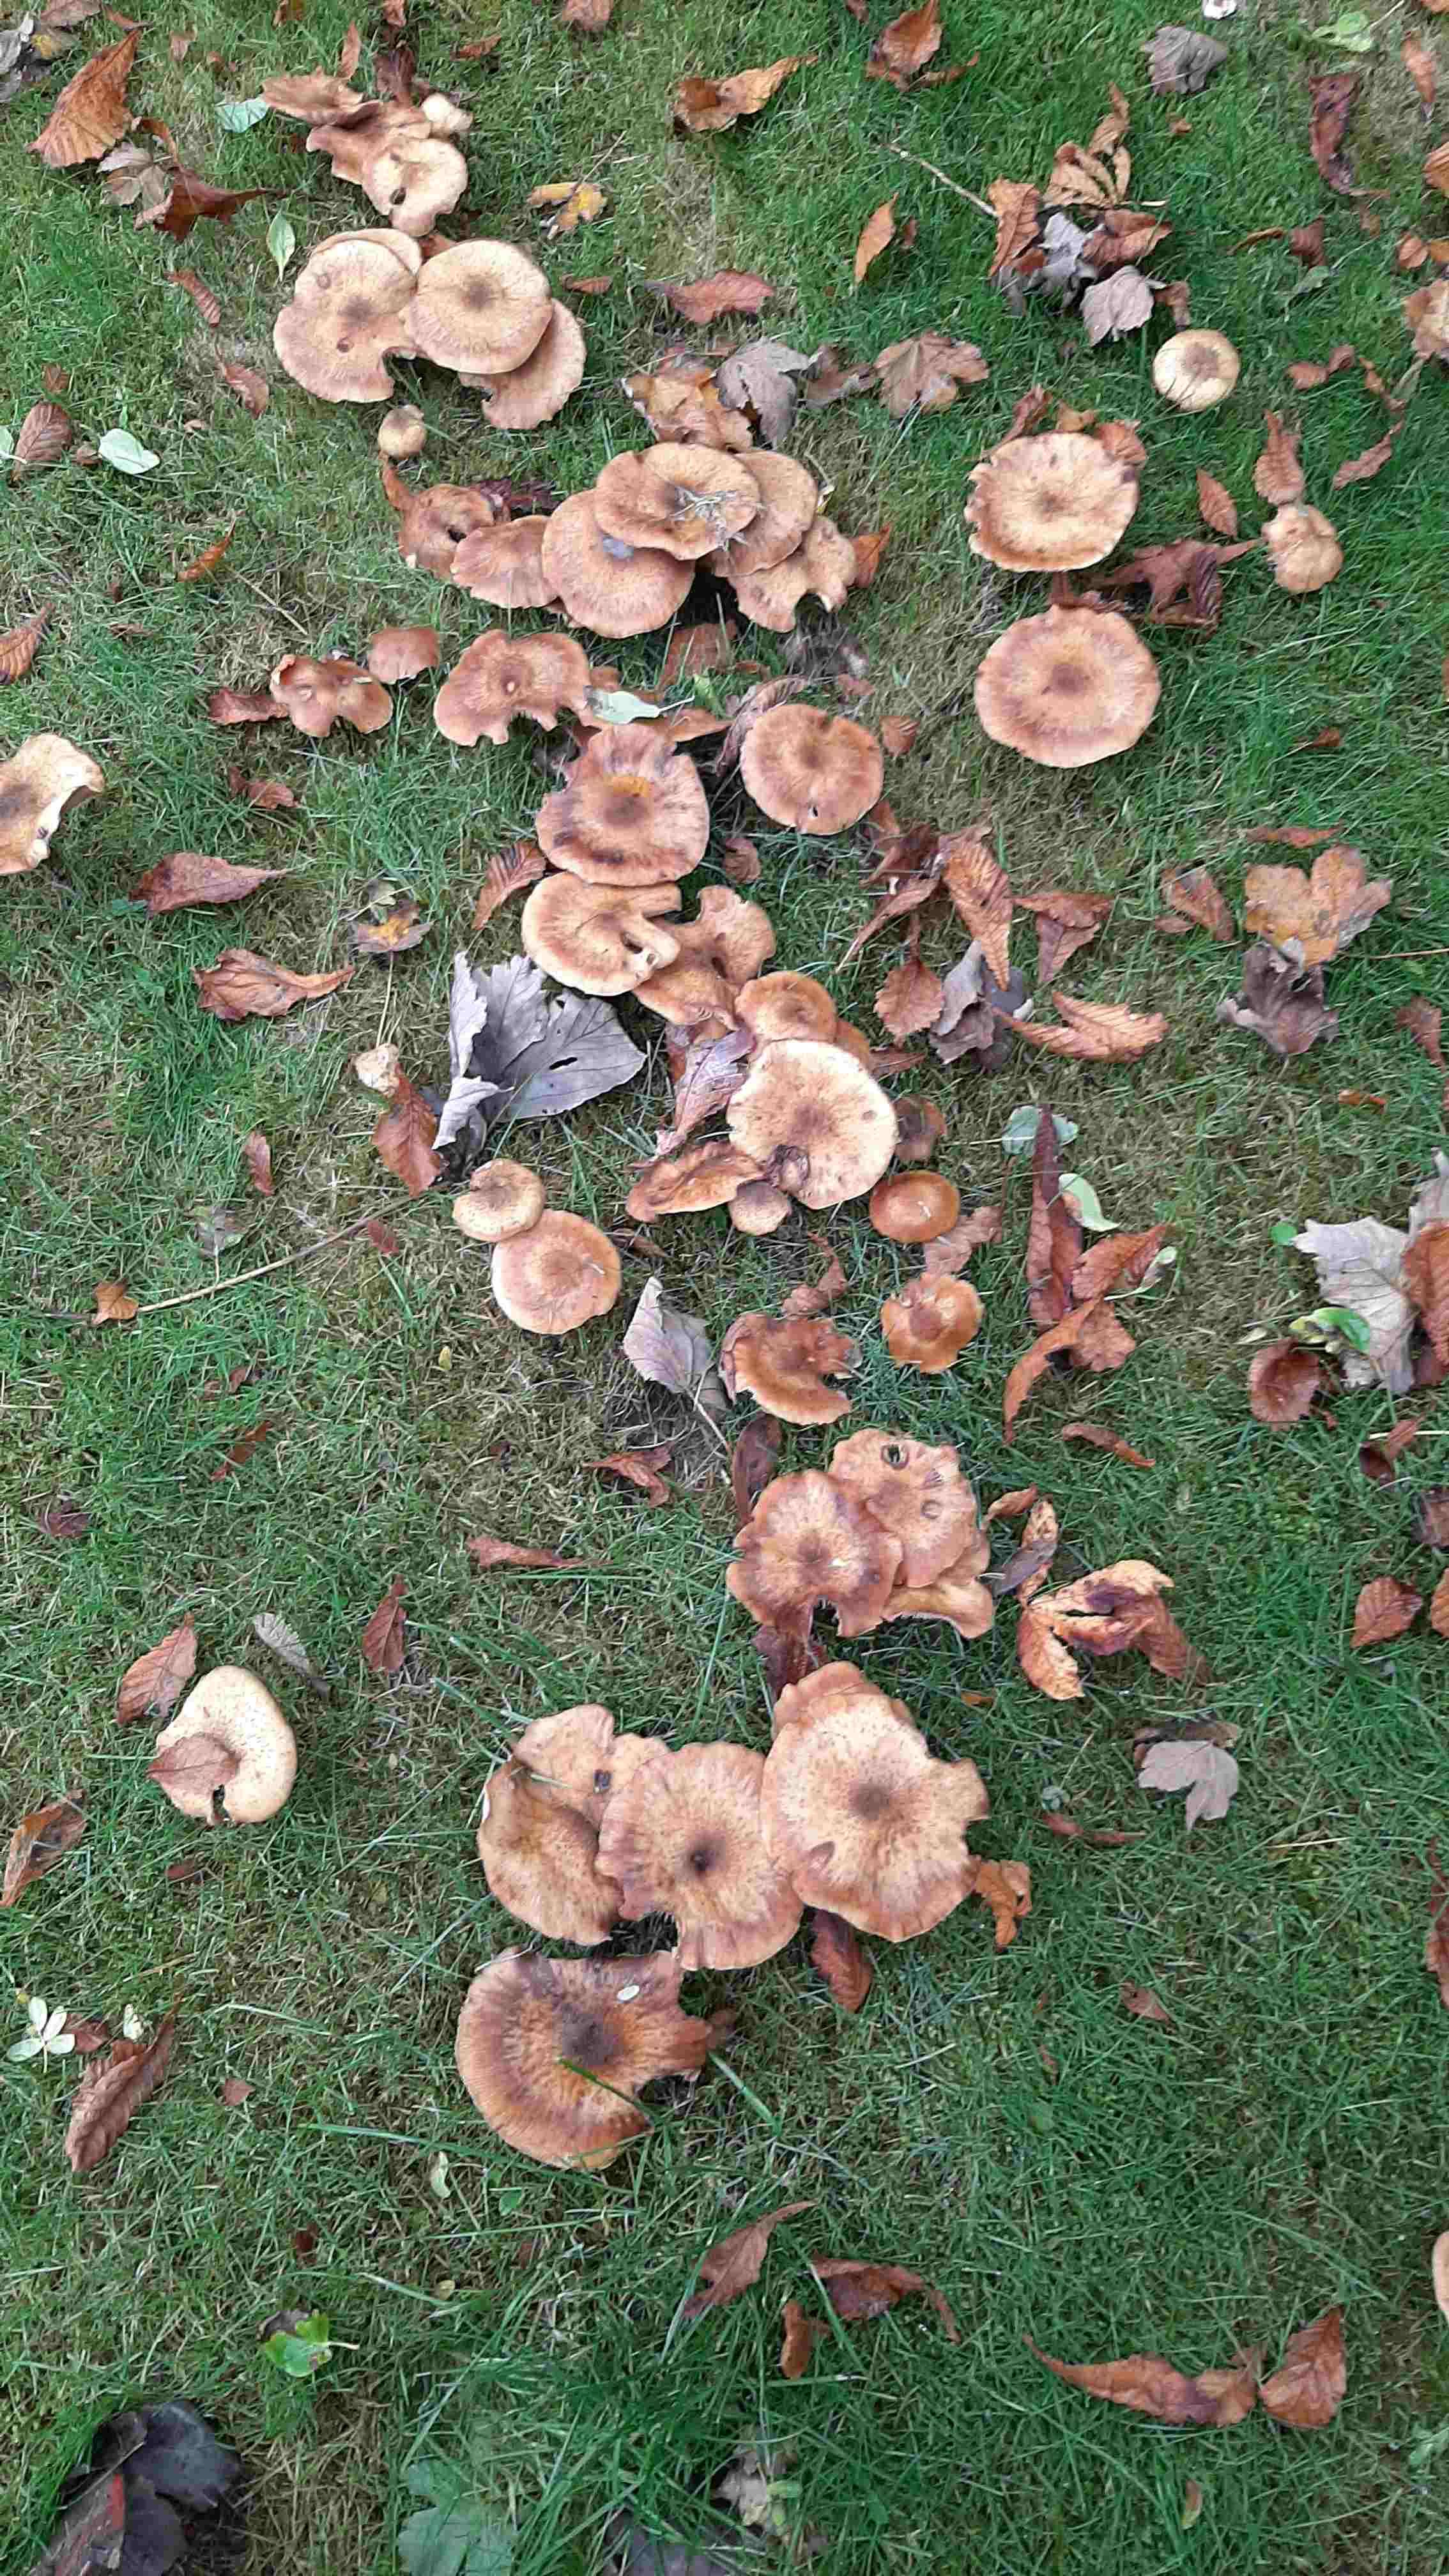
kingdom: Fungi
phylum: Basidiomycota
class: Agaricomycetes
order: Agaricales
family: Physalacriaceae
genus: Armillaria
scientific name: Armillaria
